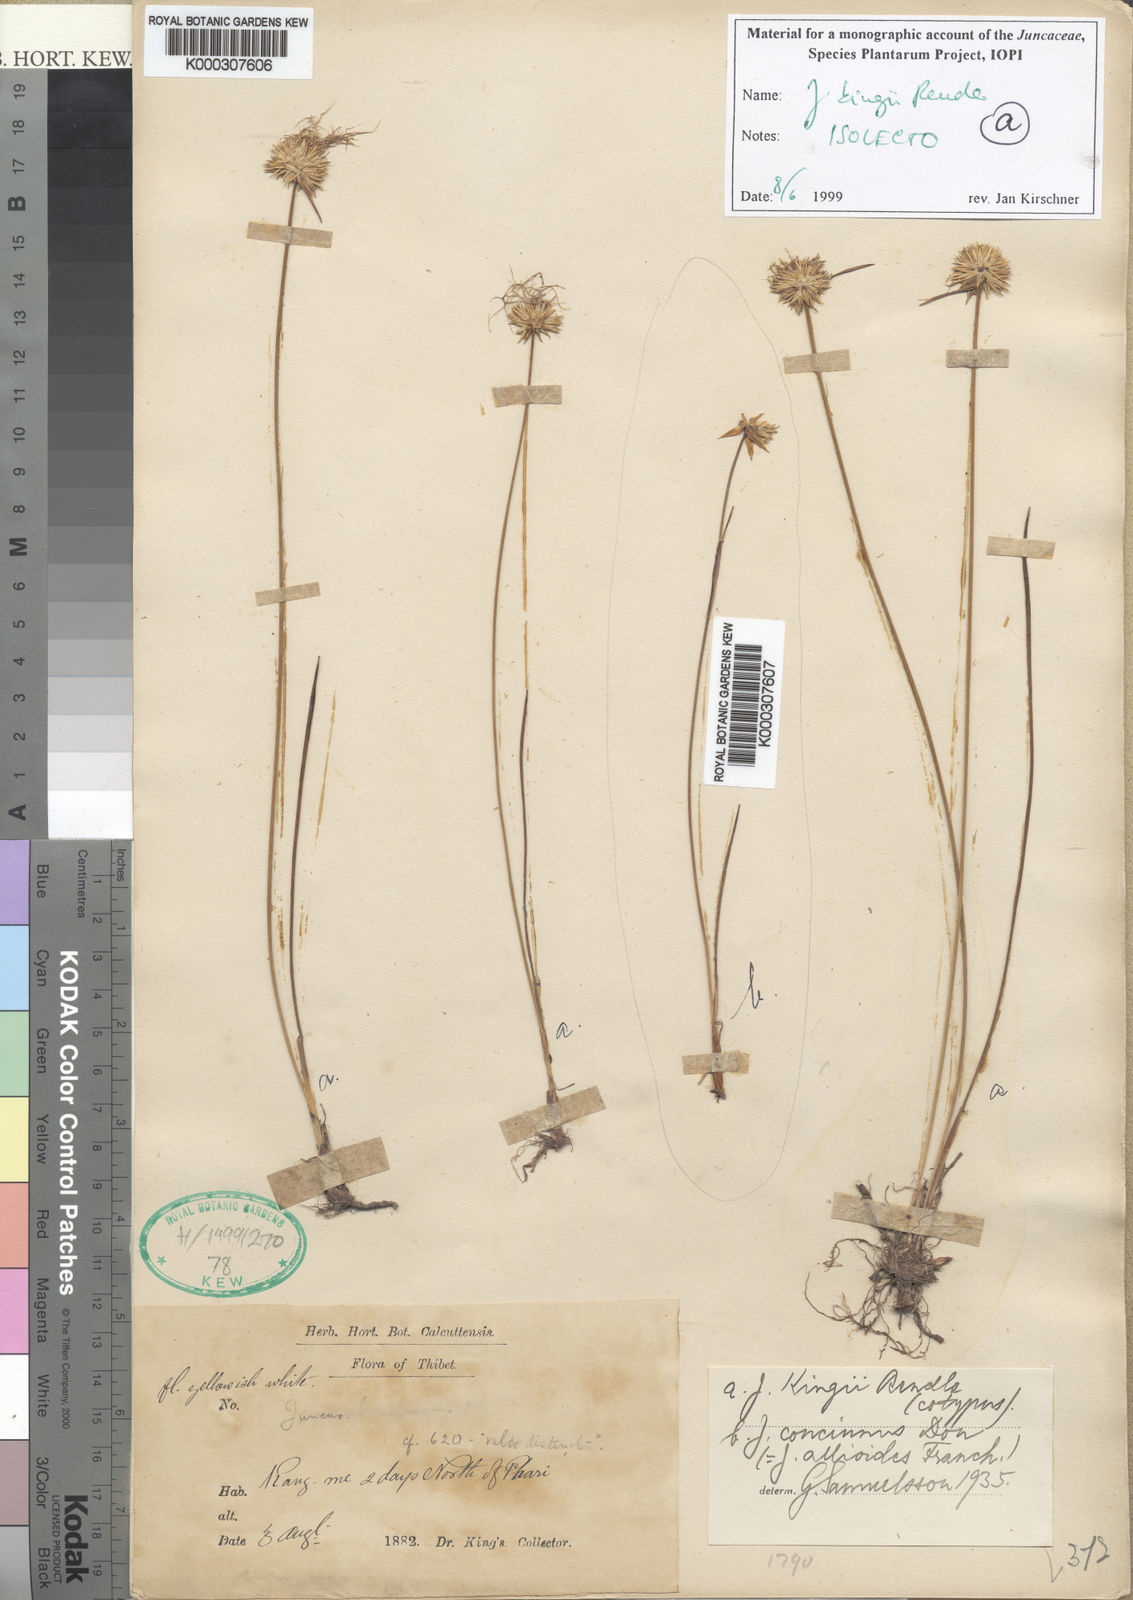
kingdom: Plantae
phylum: Tracheophyta
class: Liliopsida
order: Poales
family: Juncaceae
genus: Juncus
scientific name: Juncus kingii
